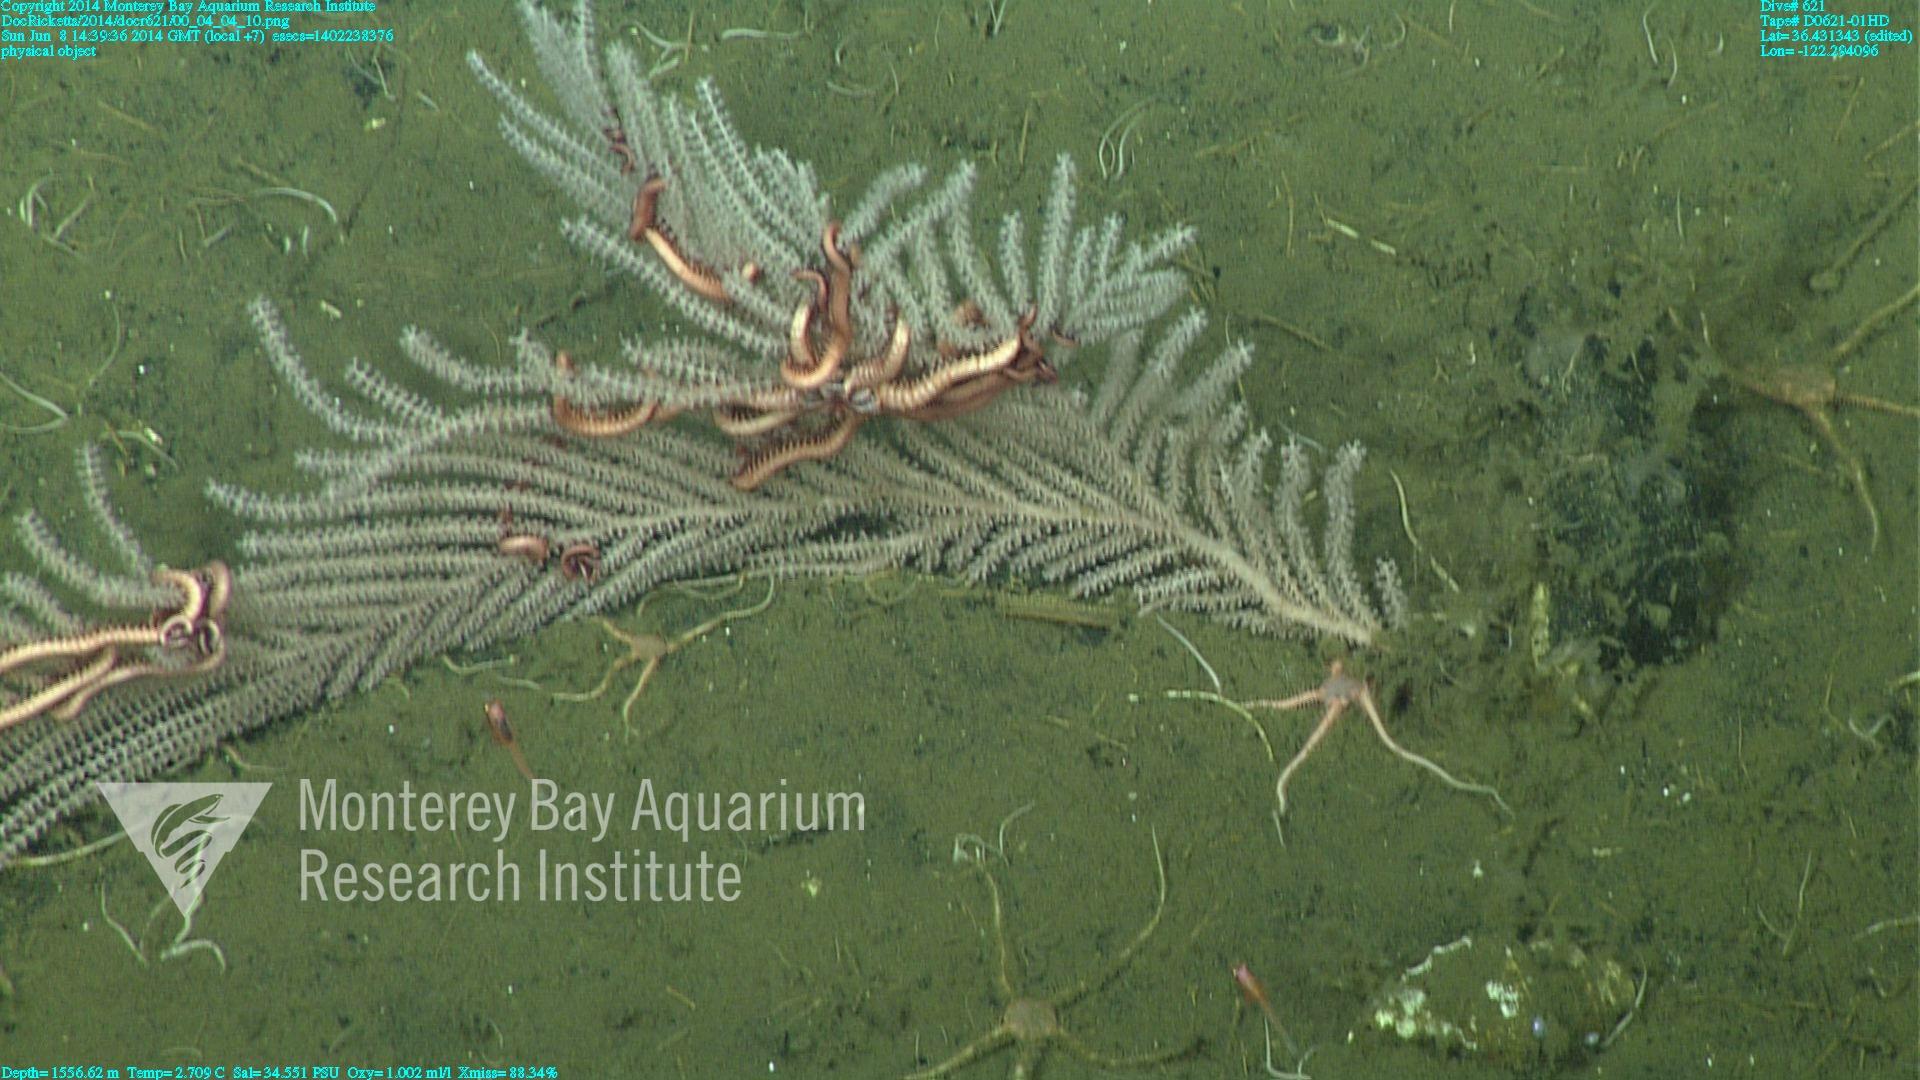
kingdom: Animalia
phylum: Cnidaria
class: Anthozoa
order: Scleralcyonacea
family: Primnoidae
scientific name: Primnoidae
